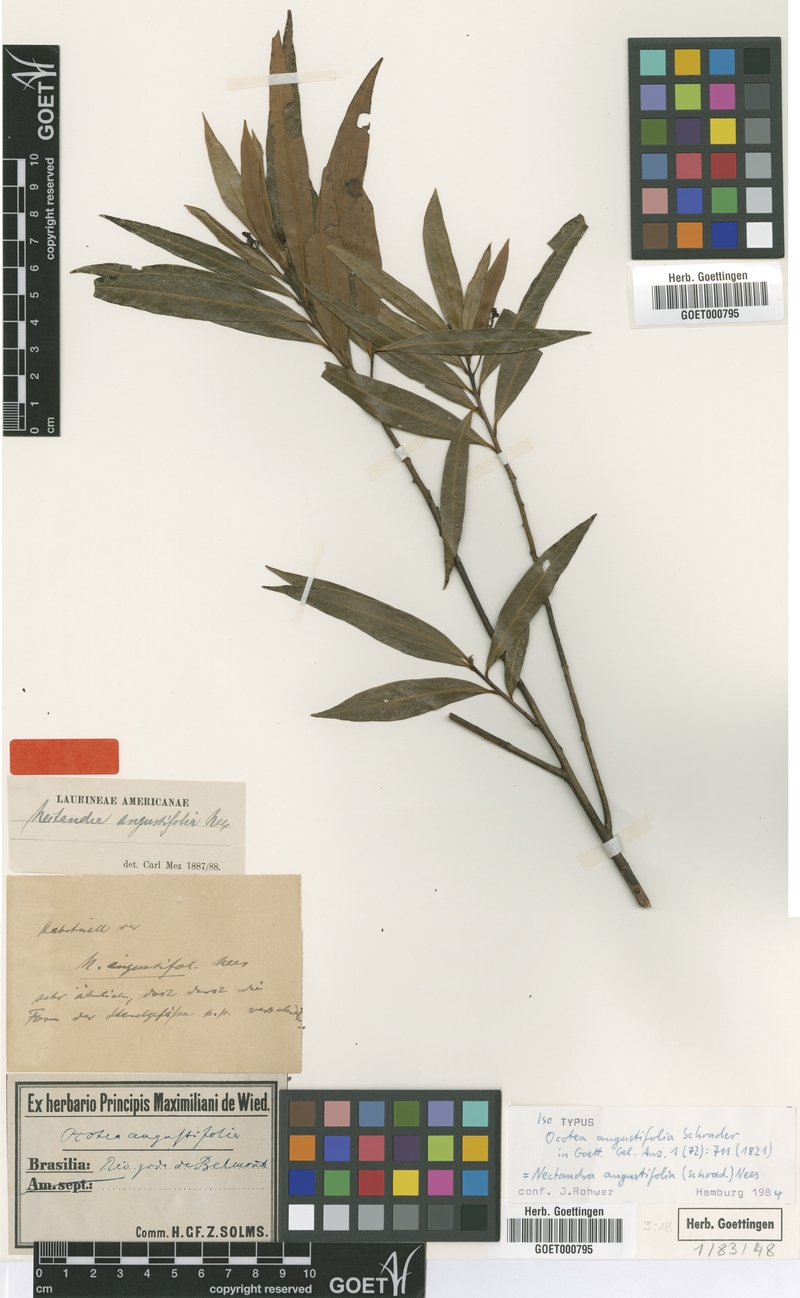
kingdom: Plantae
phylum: Tracheophyta
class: Magnoliopsida
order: Laurales
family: Lauraceae
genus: Nectandra
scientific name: Nectandra angustifolia
